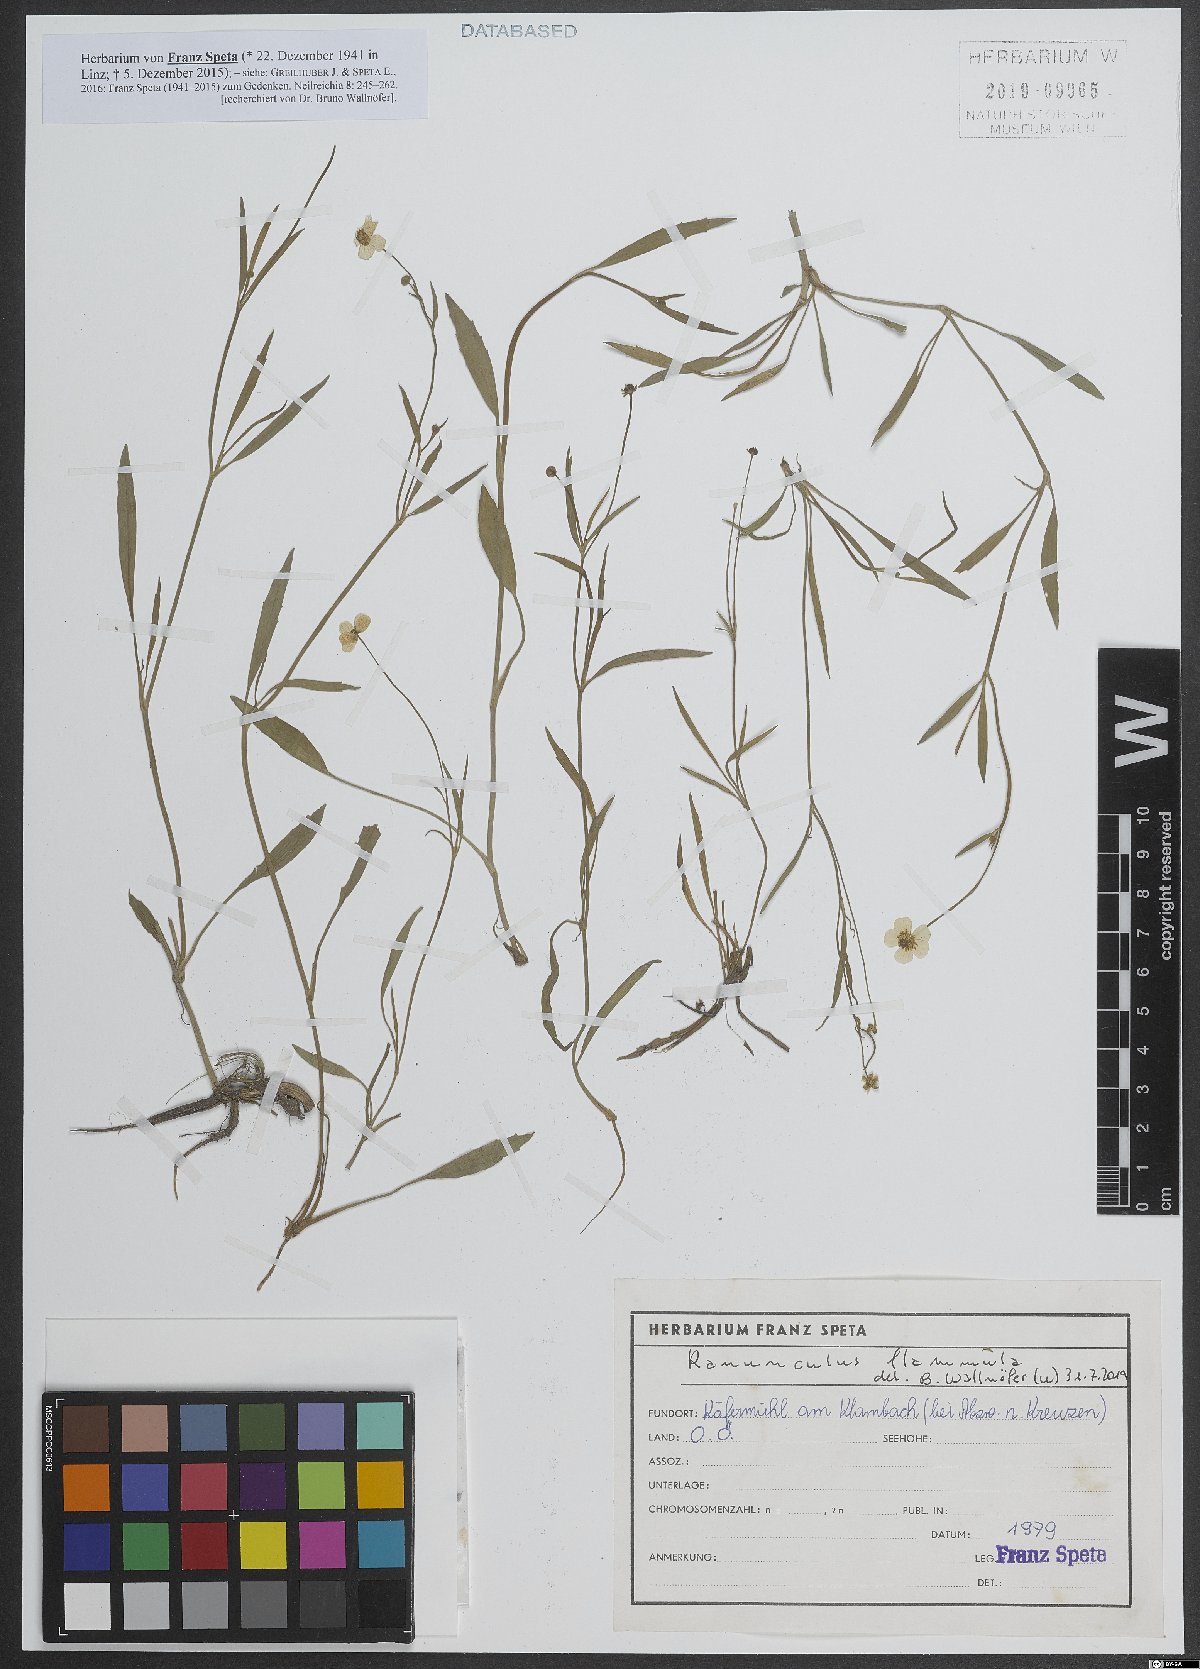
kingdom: Plantae
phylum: Tracheophyta
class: Magnoliopsida
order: Ranunculales
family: Ranunculaceae
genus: Ranunculus
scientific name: Ranunculus flammula
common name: Lesser spearwort
